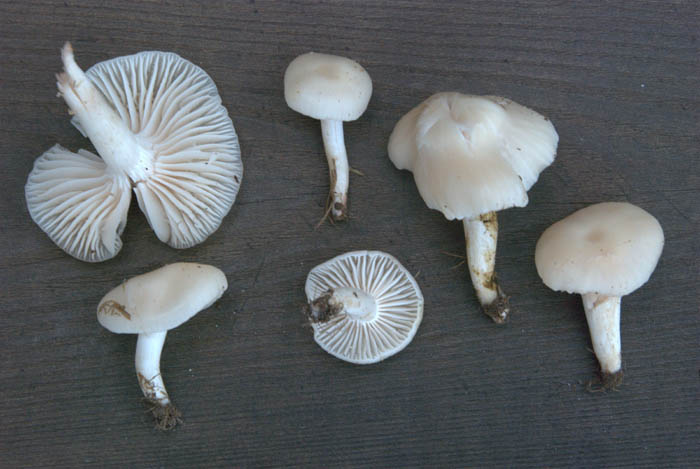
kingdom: Fungi
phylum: Basidiomycota
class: Agaricomycetes
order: Agaricales
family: Hygrophoraceae
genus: Cuphophyllus
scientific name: Cuphophyllus virgineus
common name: snehvid vokshat
